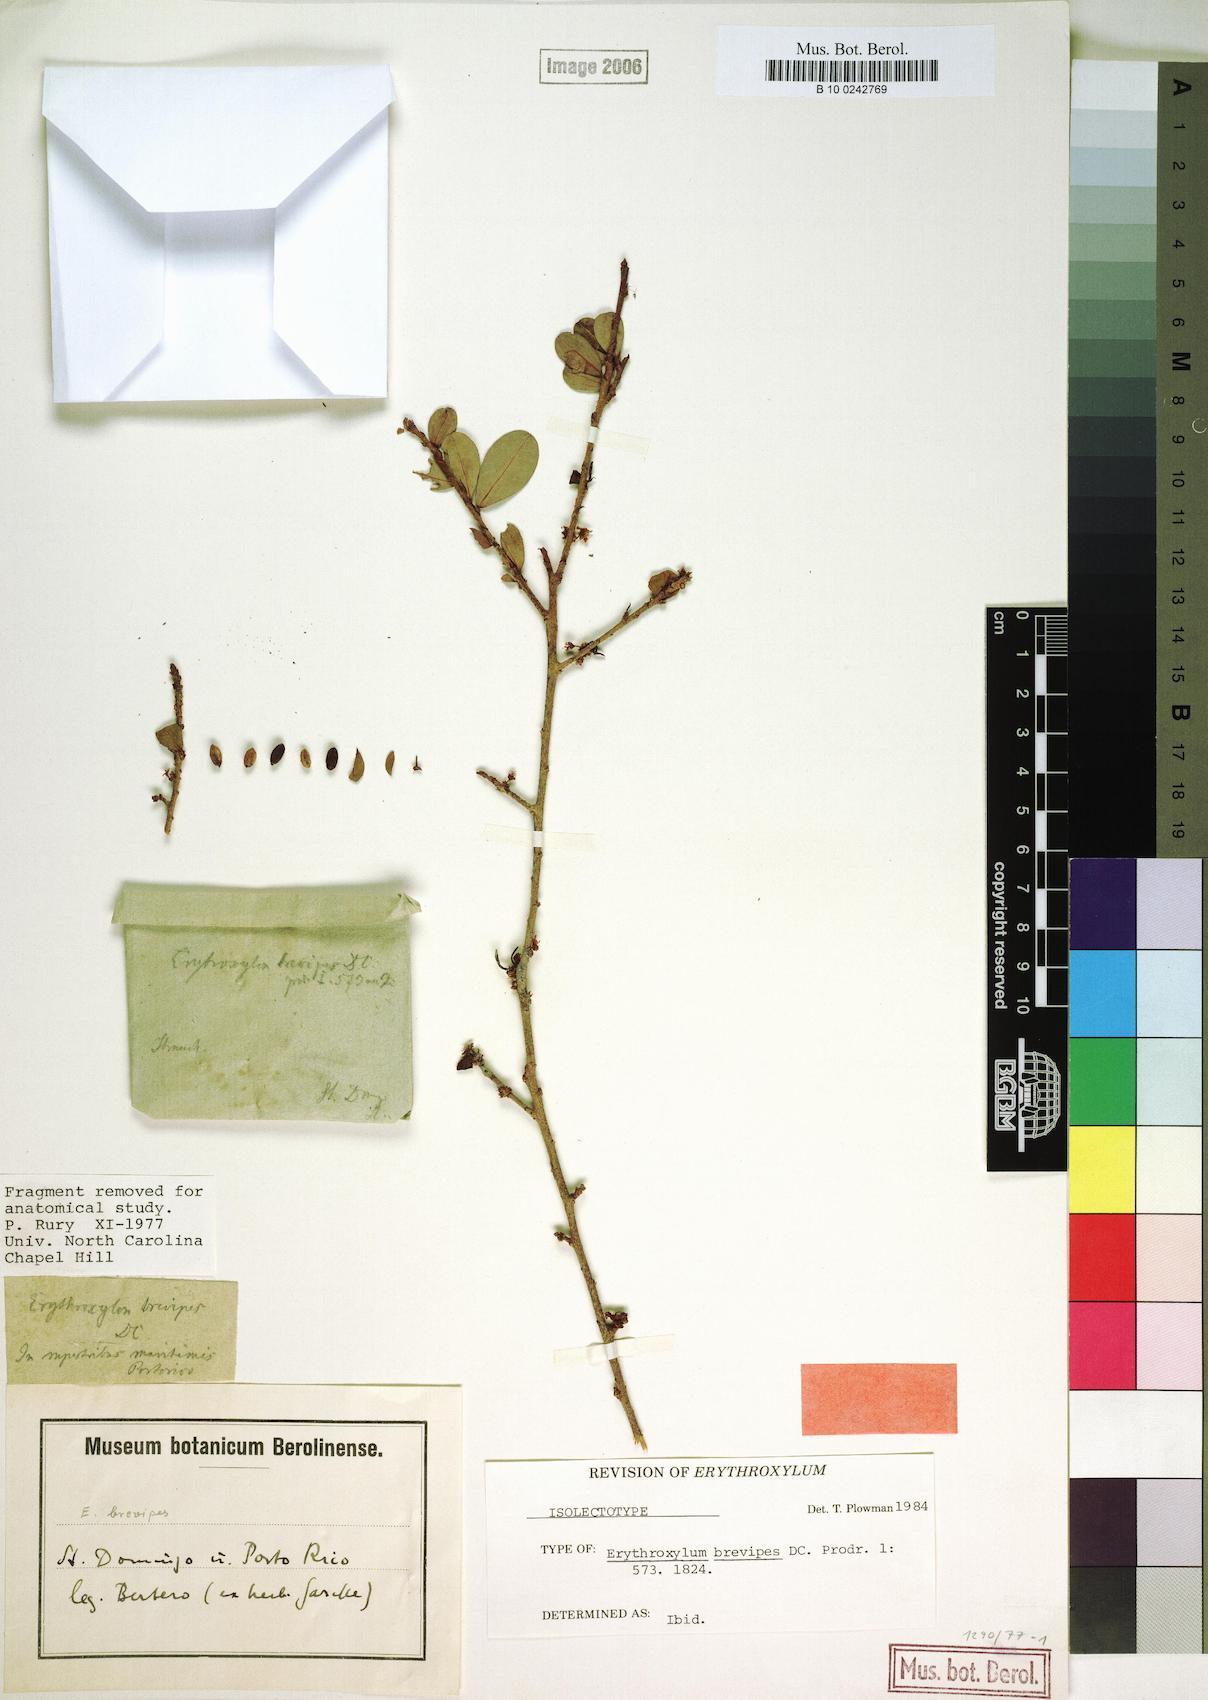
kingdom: Plantae
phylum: Tracheophyta
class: Magnoliopsida
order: Malpighiales
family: Erythroxylaceae
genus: Erythroxylum
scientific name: Erythroxylum brevipes
